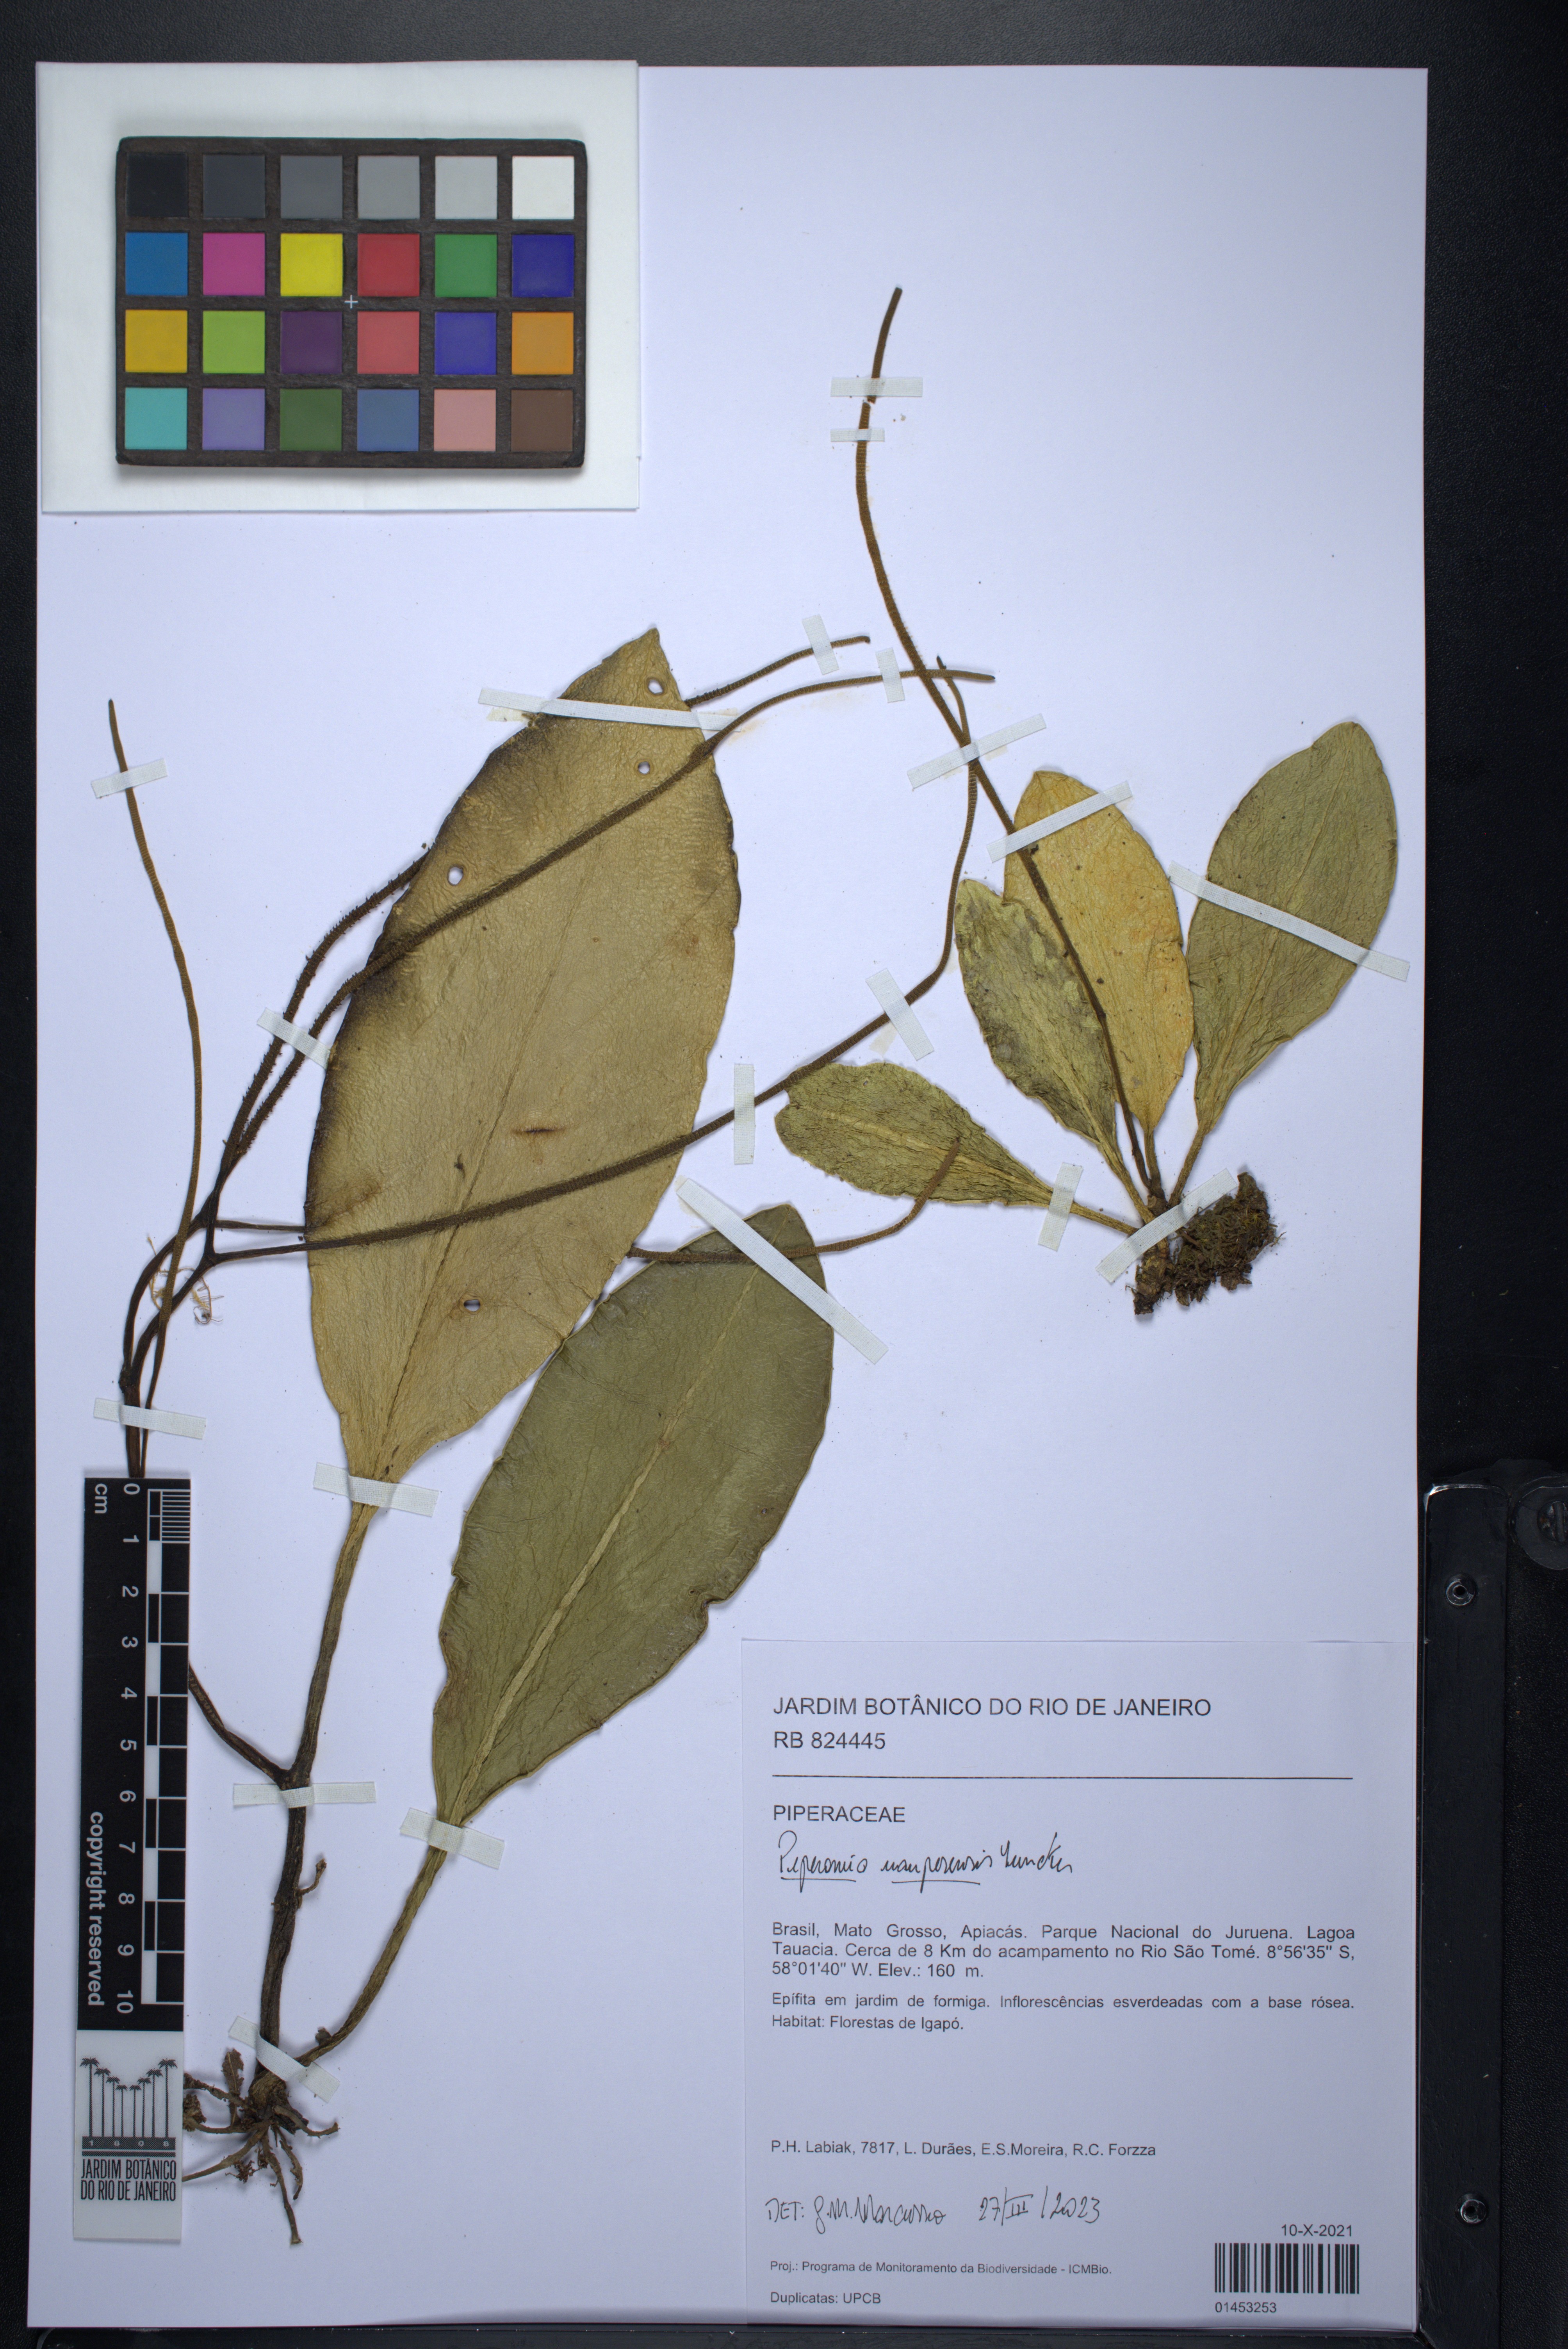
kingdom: Plantae
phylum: Tracheophyta
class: Magnoliopsida
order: Piperales
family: Piperaceae
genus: Peperomia
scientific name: Peperomia uaupesensis
